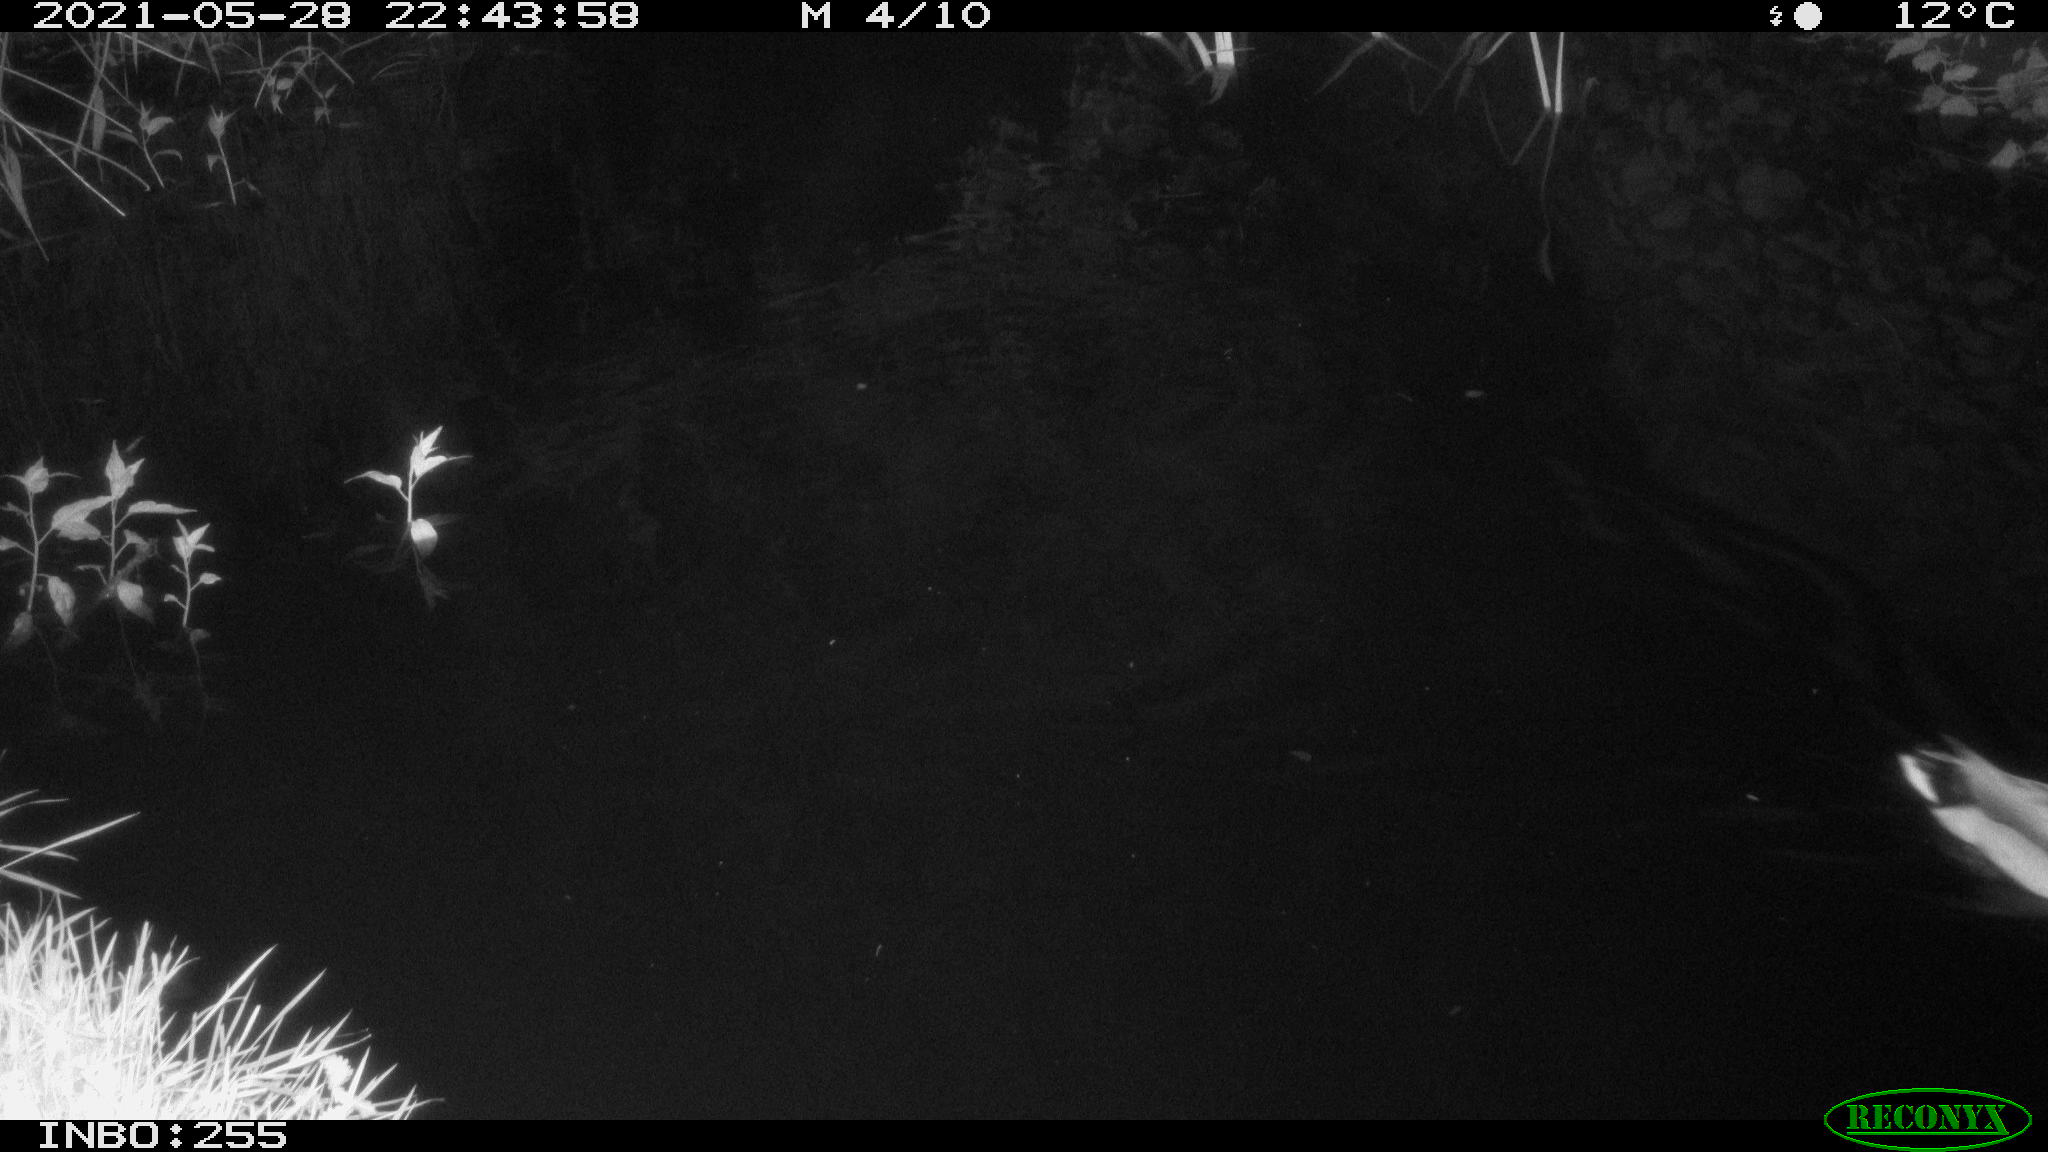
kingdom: Animalia
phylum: Chordata
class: Aves
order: Anseriformes
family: Anatidae
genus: Anas
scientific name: Anas
